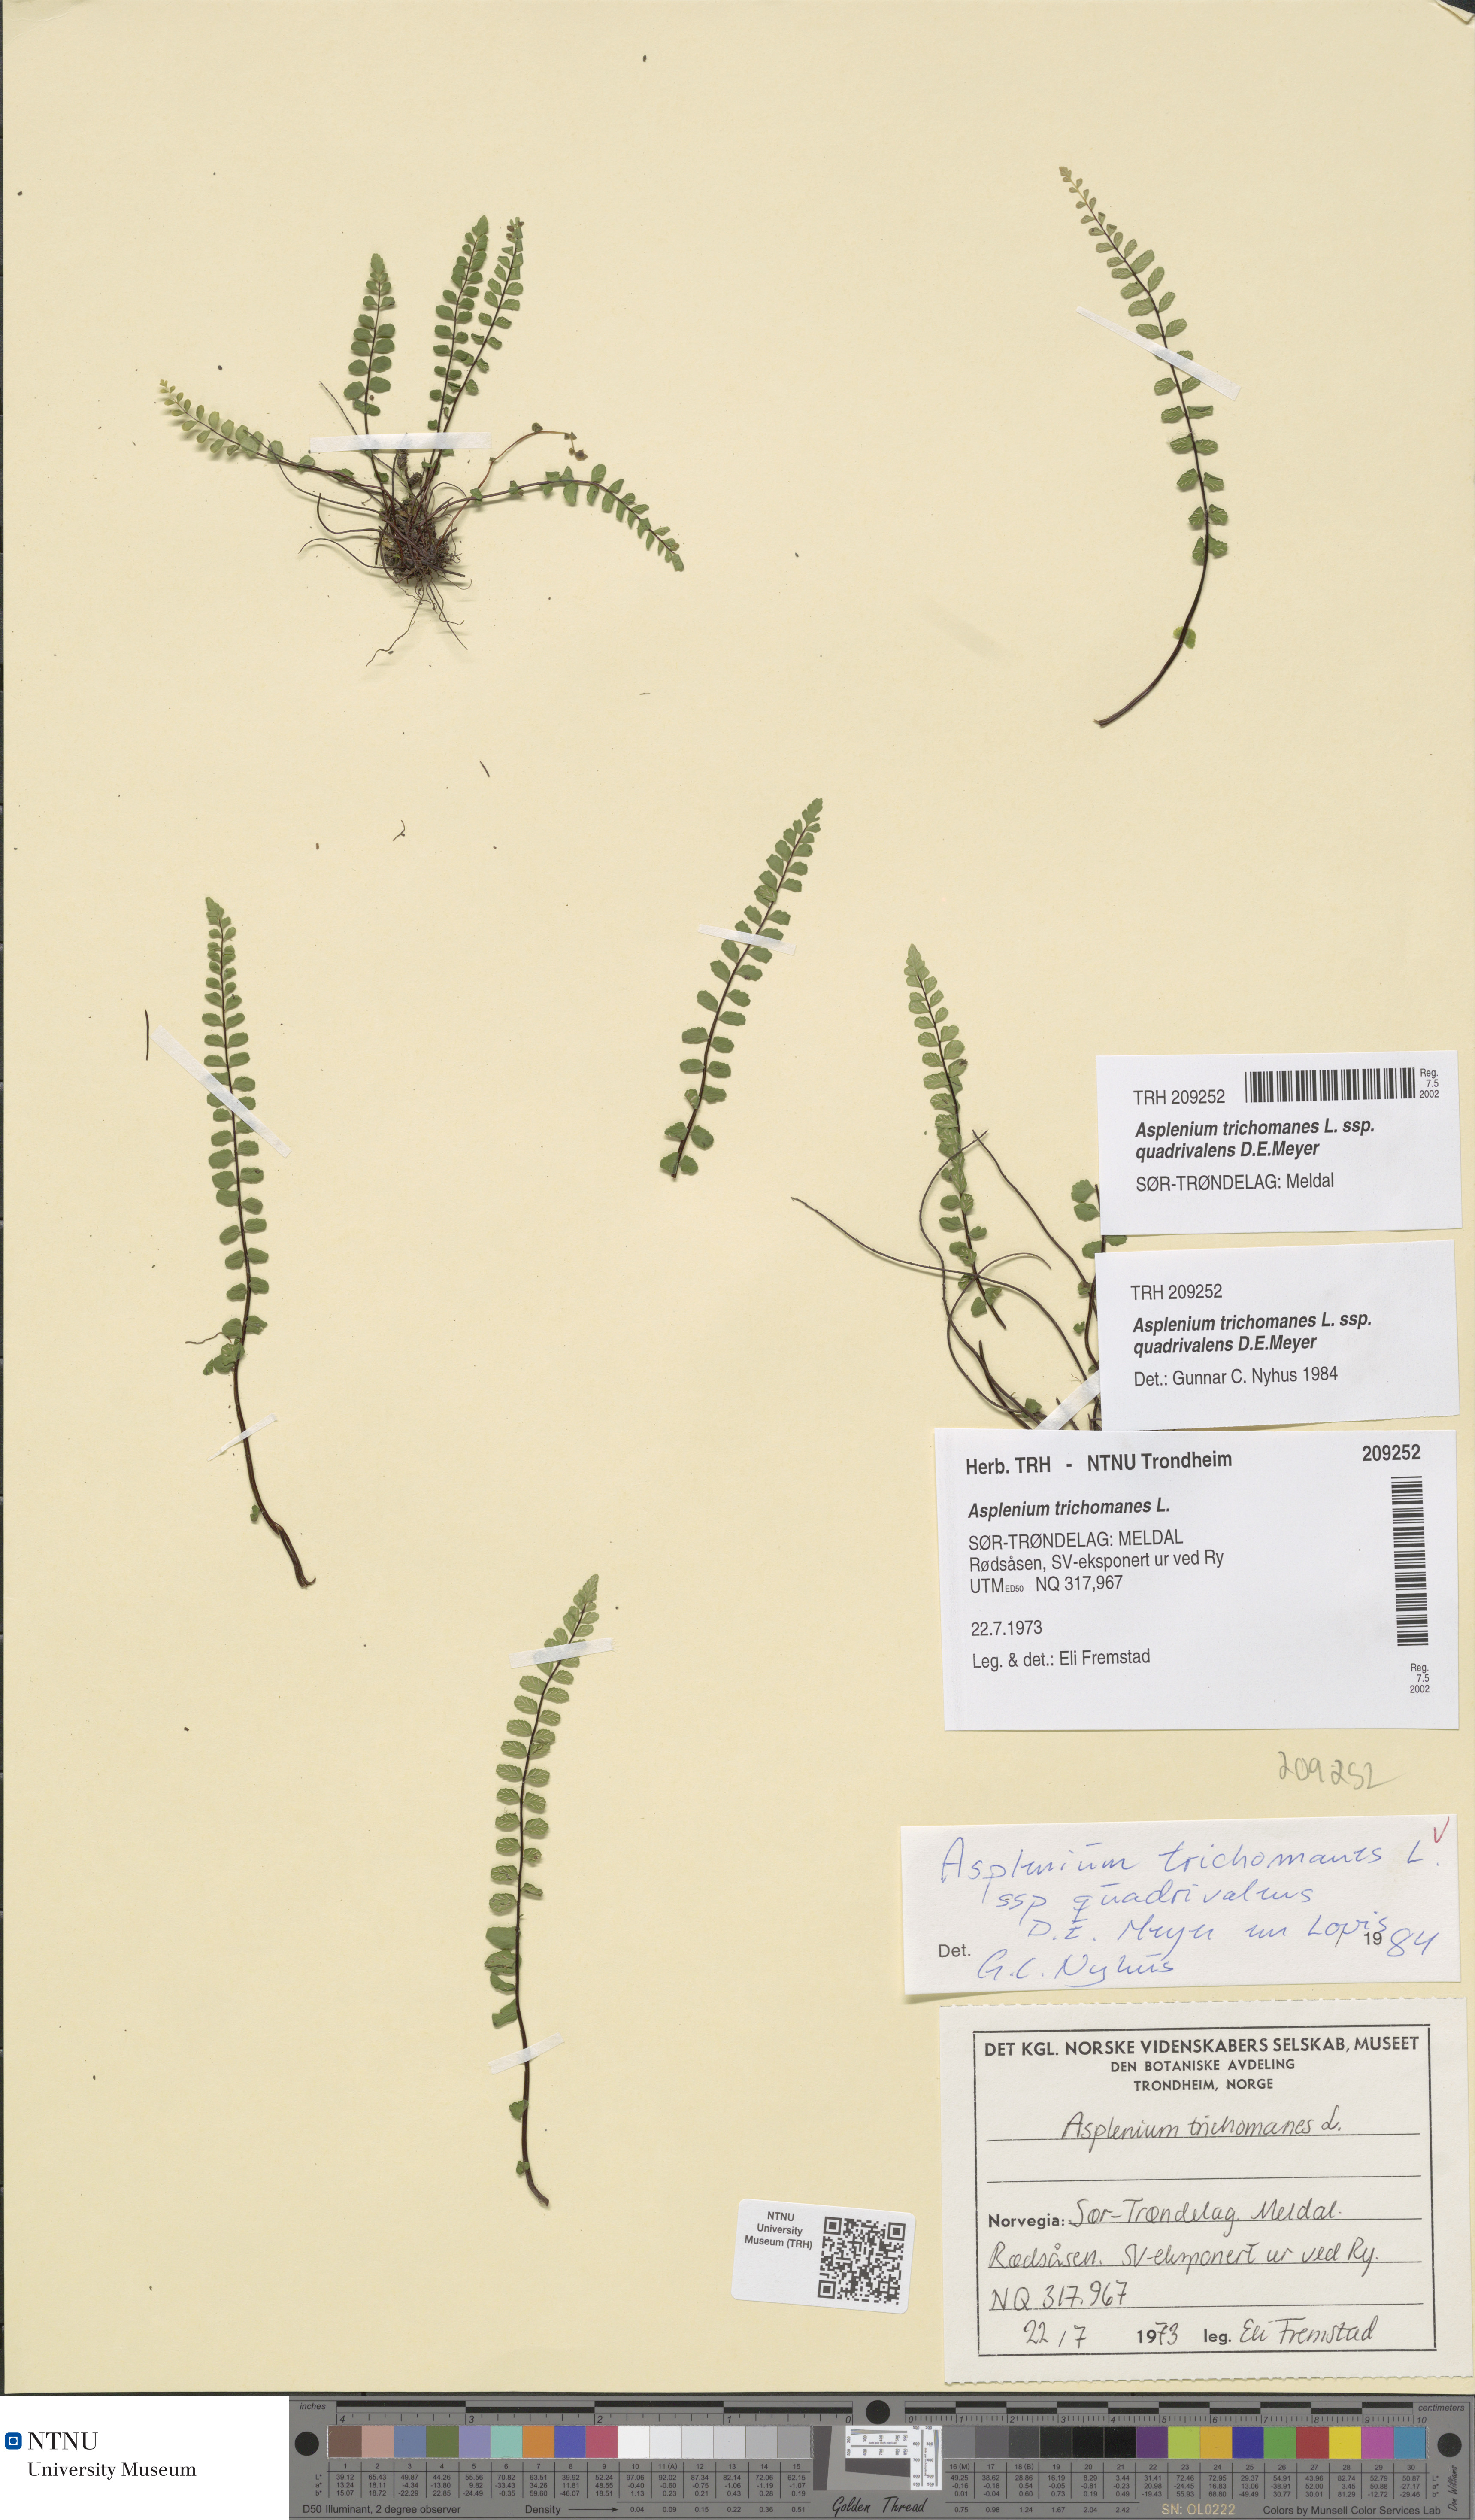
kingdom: Plantae
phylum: Tracheophyta
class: Polypodiopsida
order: Polypodiales
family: Aspleniaceae
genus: Asplenium
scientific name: Asplenium quadrivalens
